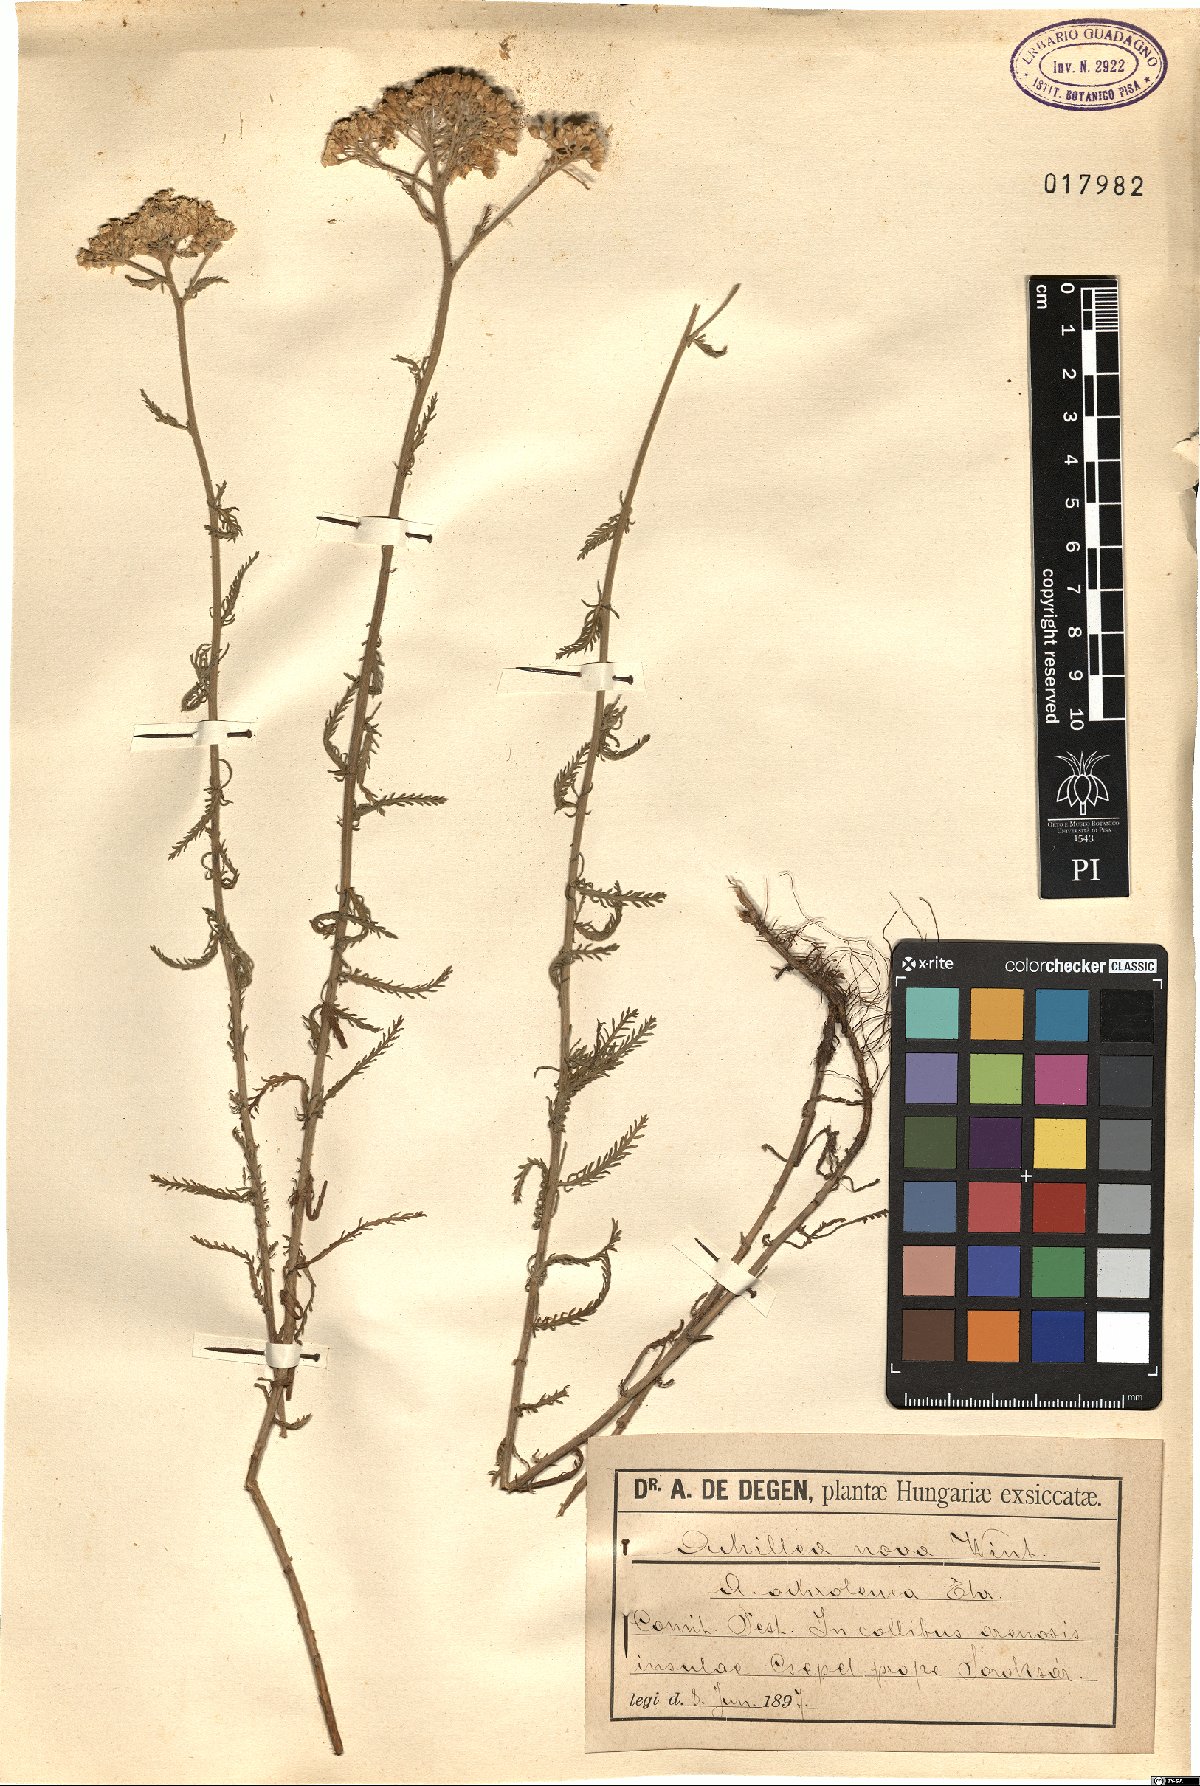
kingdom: Plantae
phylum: Tracheophyta
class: Magnoliopsida
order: Asterales
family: Asteraceae
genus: Achillea
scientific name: Achillea ochroleuca
